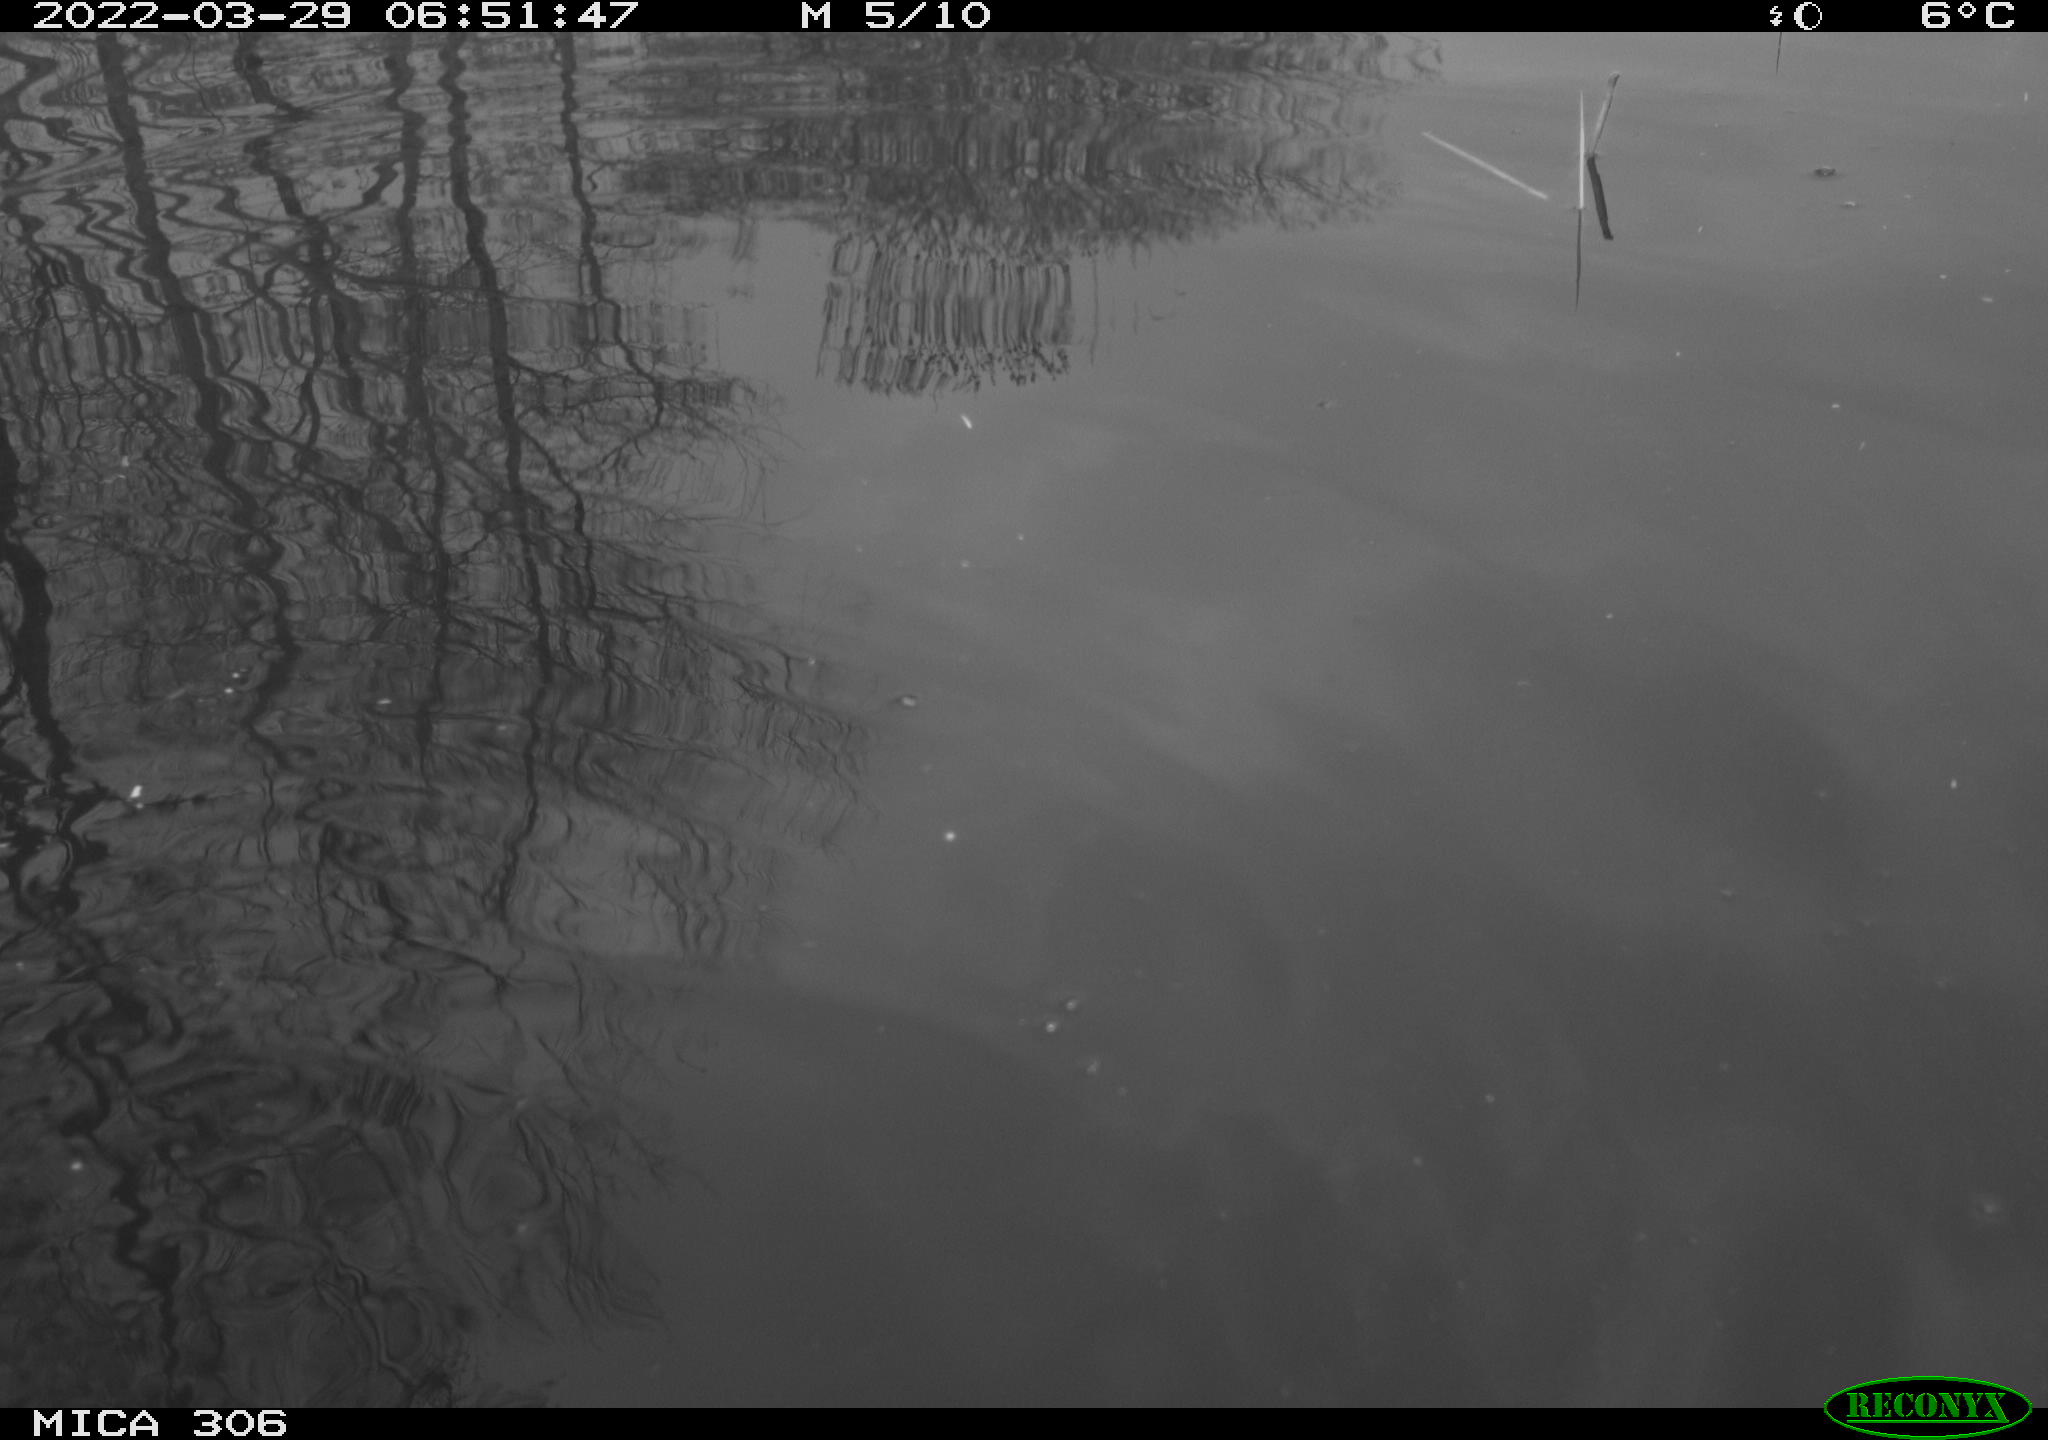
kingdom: Animalia
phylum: Chordata
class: Aves
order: Anseriformes
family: Anatidae
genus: Anas
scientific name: Anas
